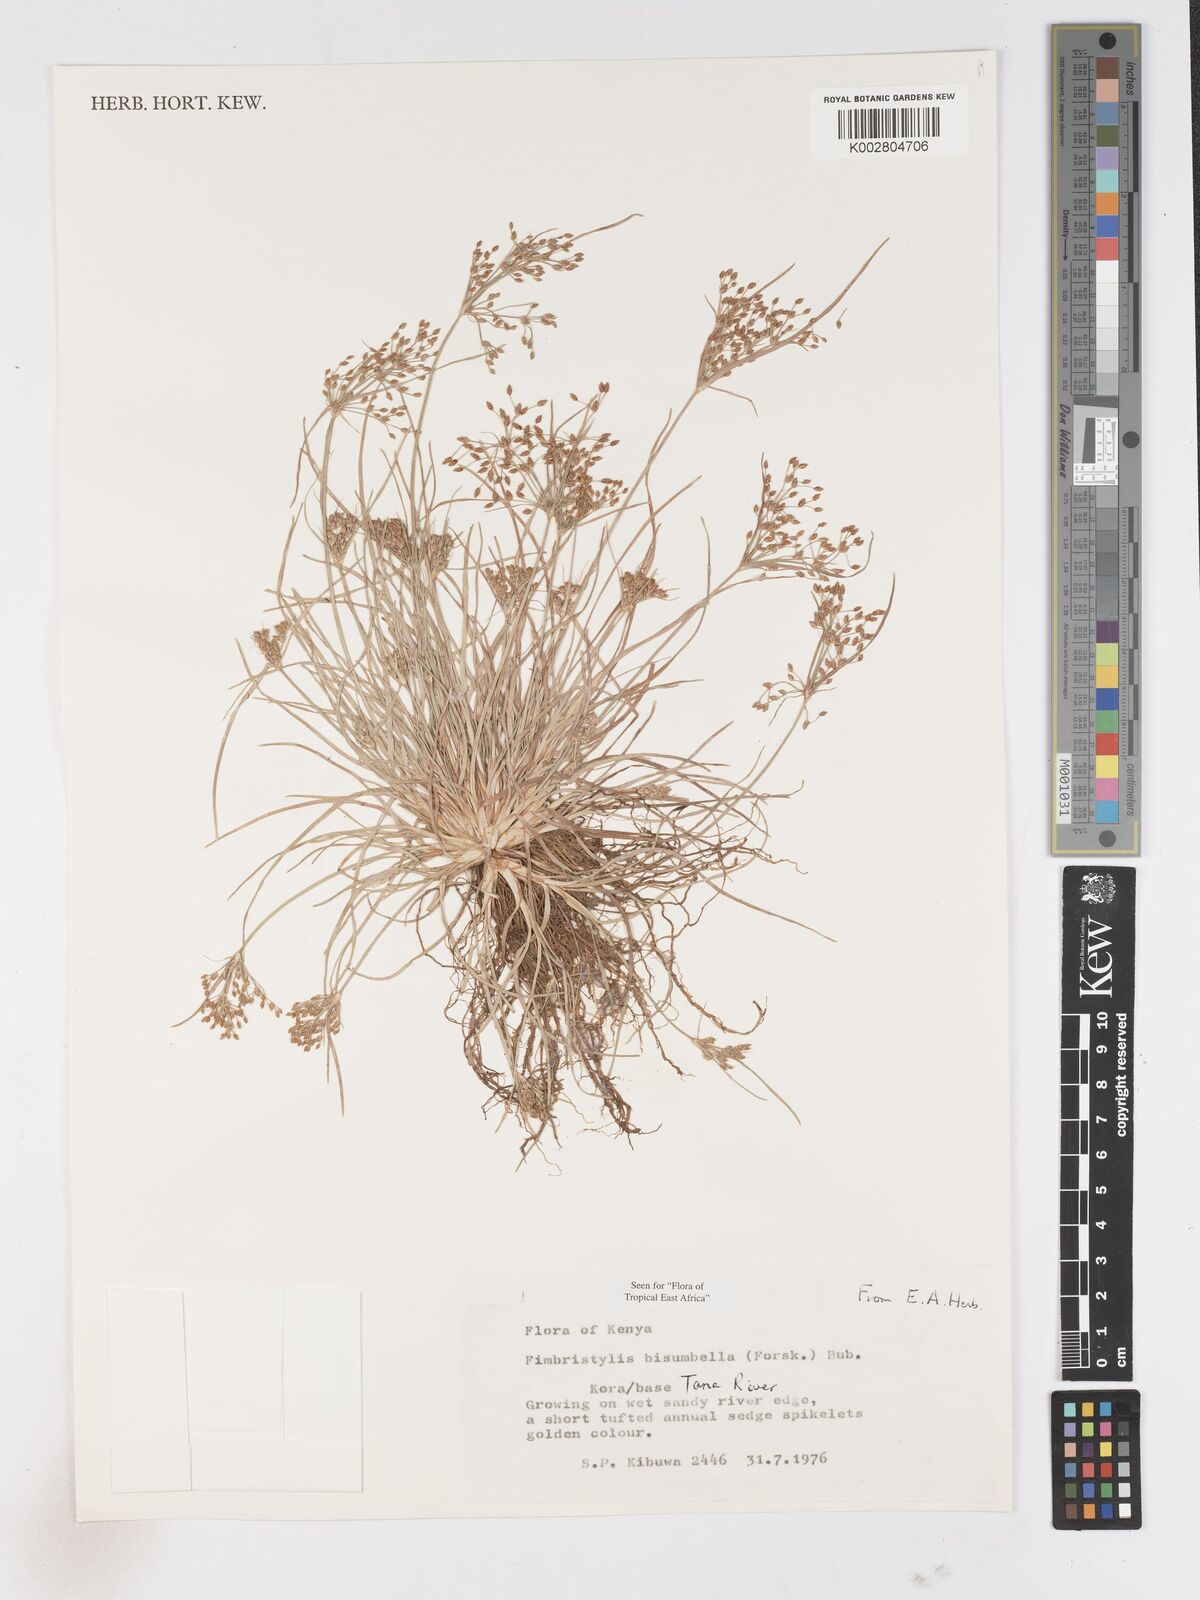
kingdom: Plantae
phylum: Tracheophyta
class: Liliopsida
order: Poales
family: Cyperaceae
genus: Fimbristylis
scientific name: Fimbristylis bisumbellata
